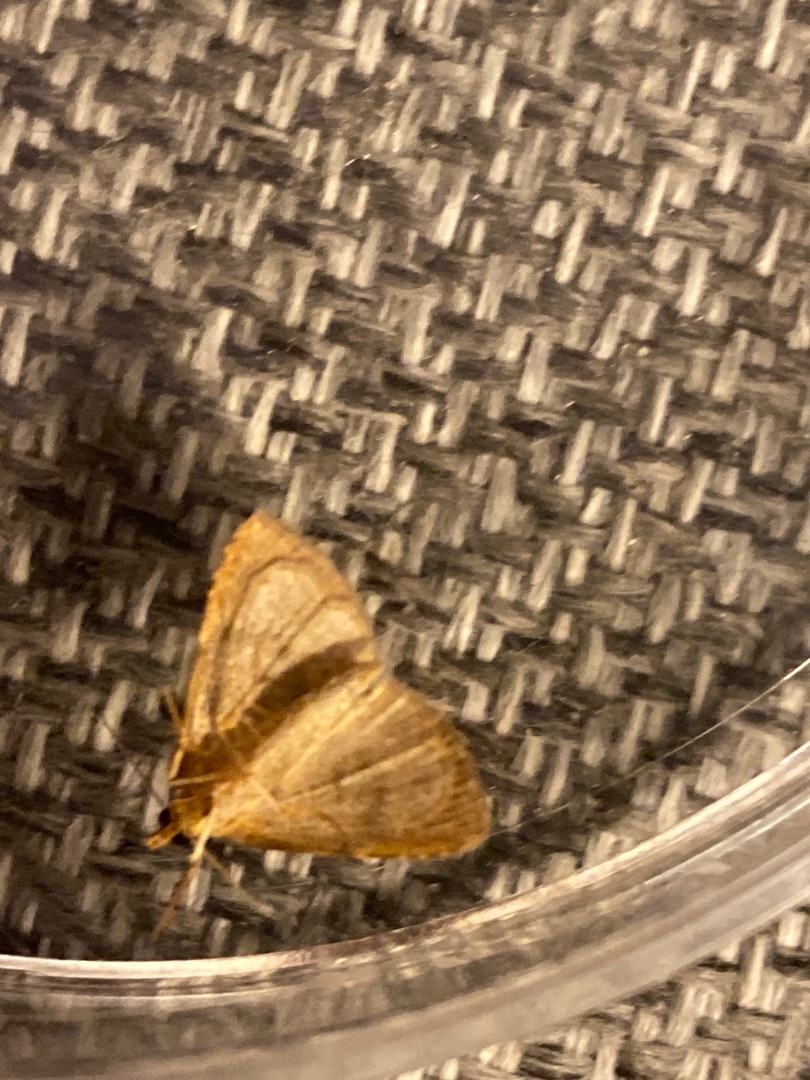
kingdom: Animalia
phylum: Arthropoda
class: Insecta
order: Lepidoptera
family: Erebidae
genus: Rivula
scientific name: Rivula sericealis
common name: Lille å-ugle
